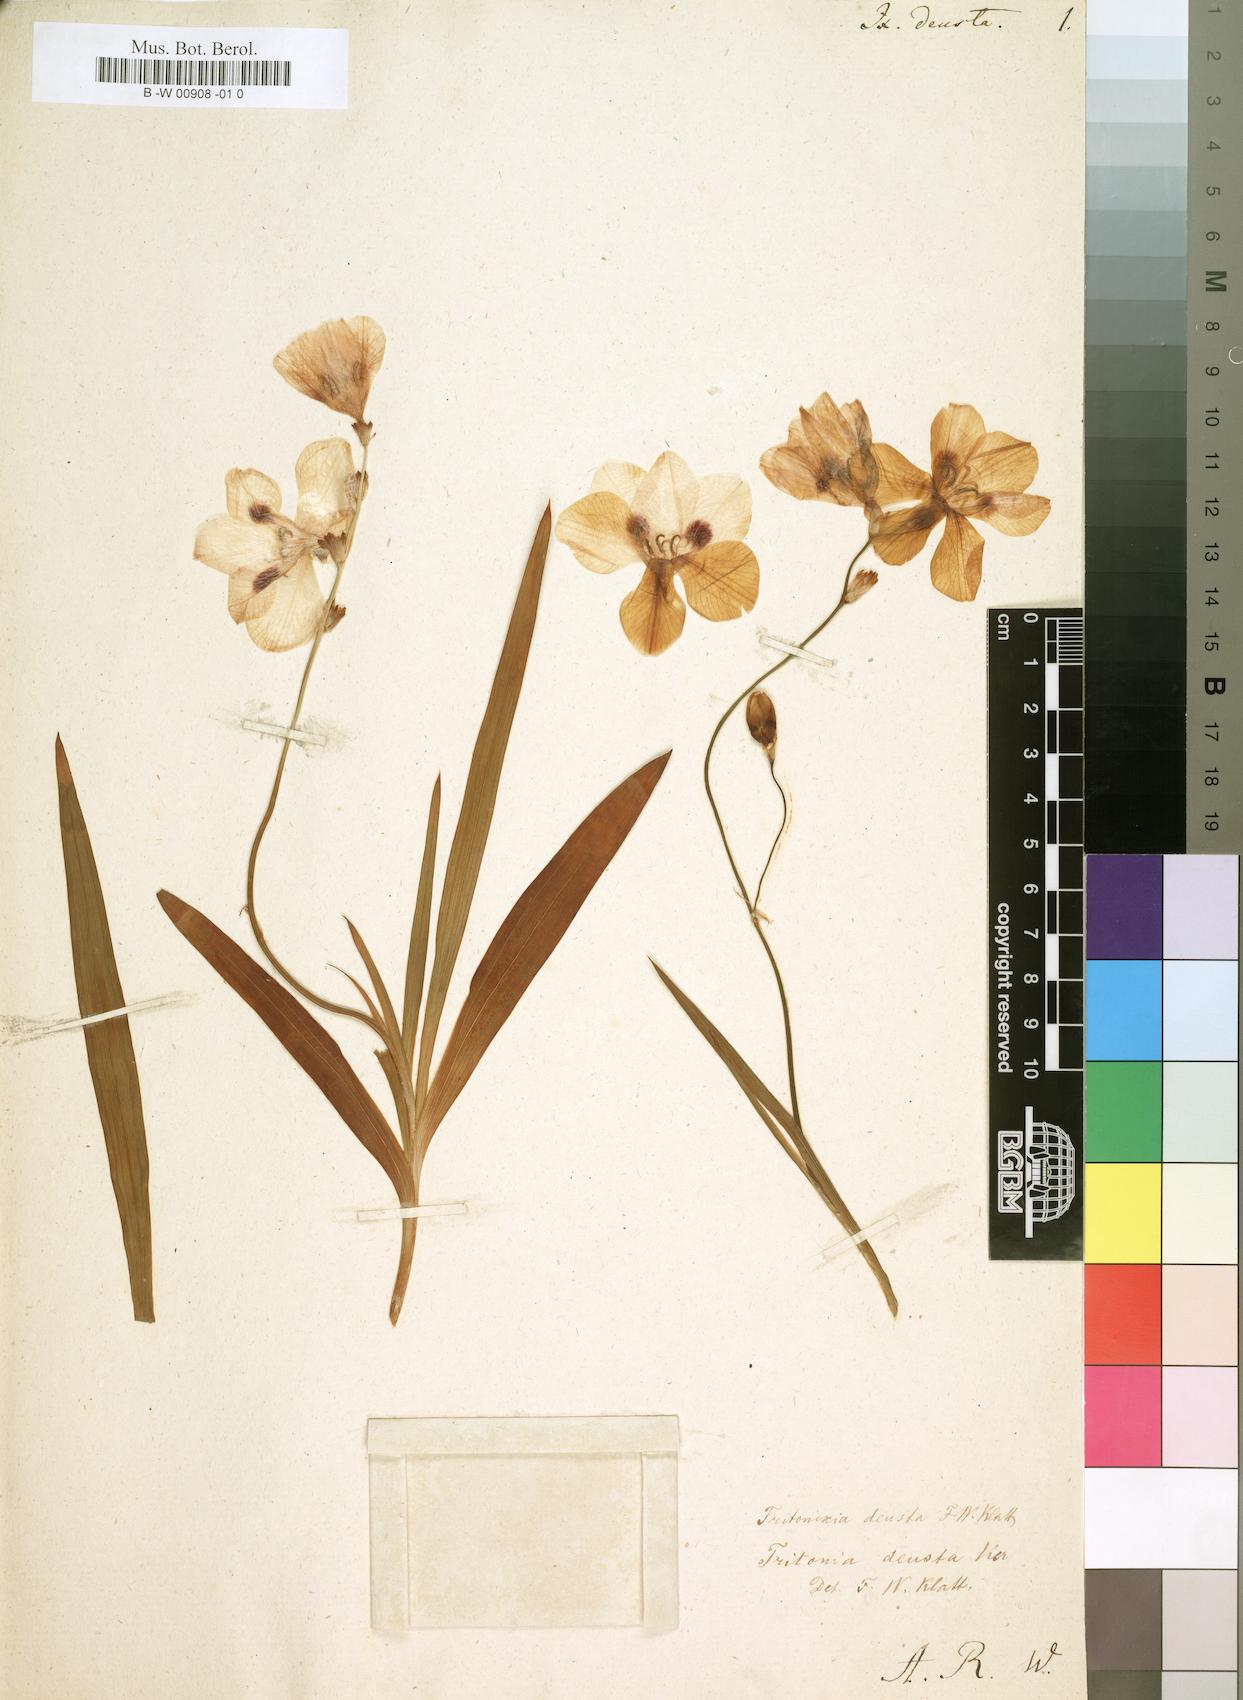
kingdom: Plantae
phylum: Tracheophyta
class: Liliopsida
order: Asparagales
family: Iridaceae
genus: Tritonia
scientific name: Tritonia deusta
